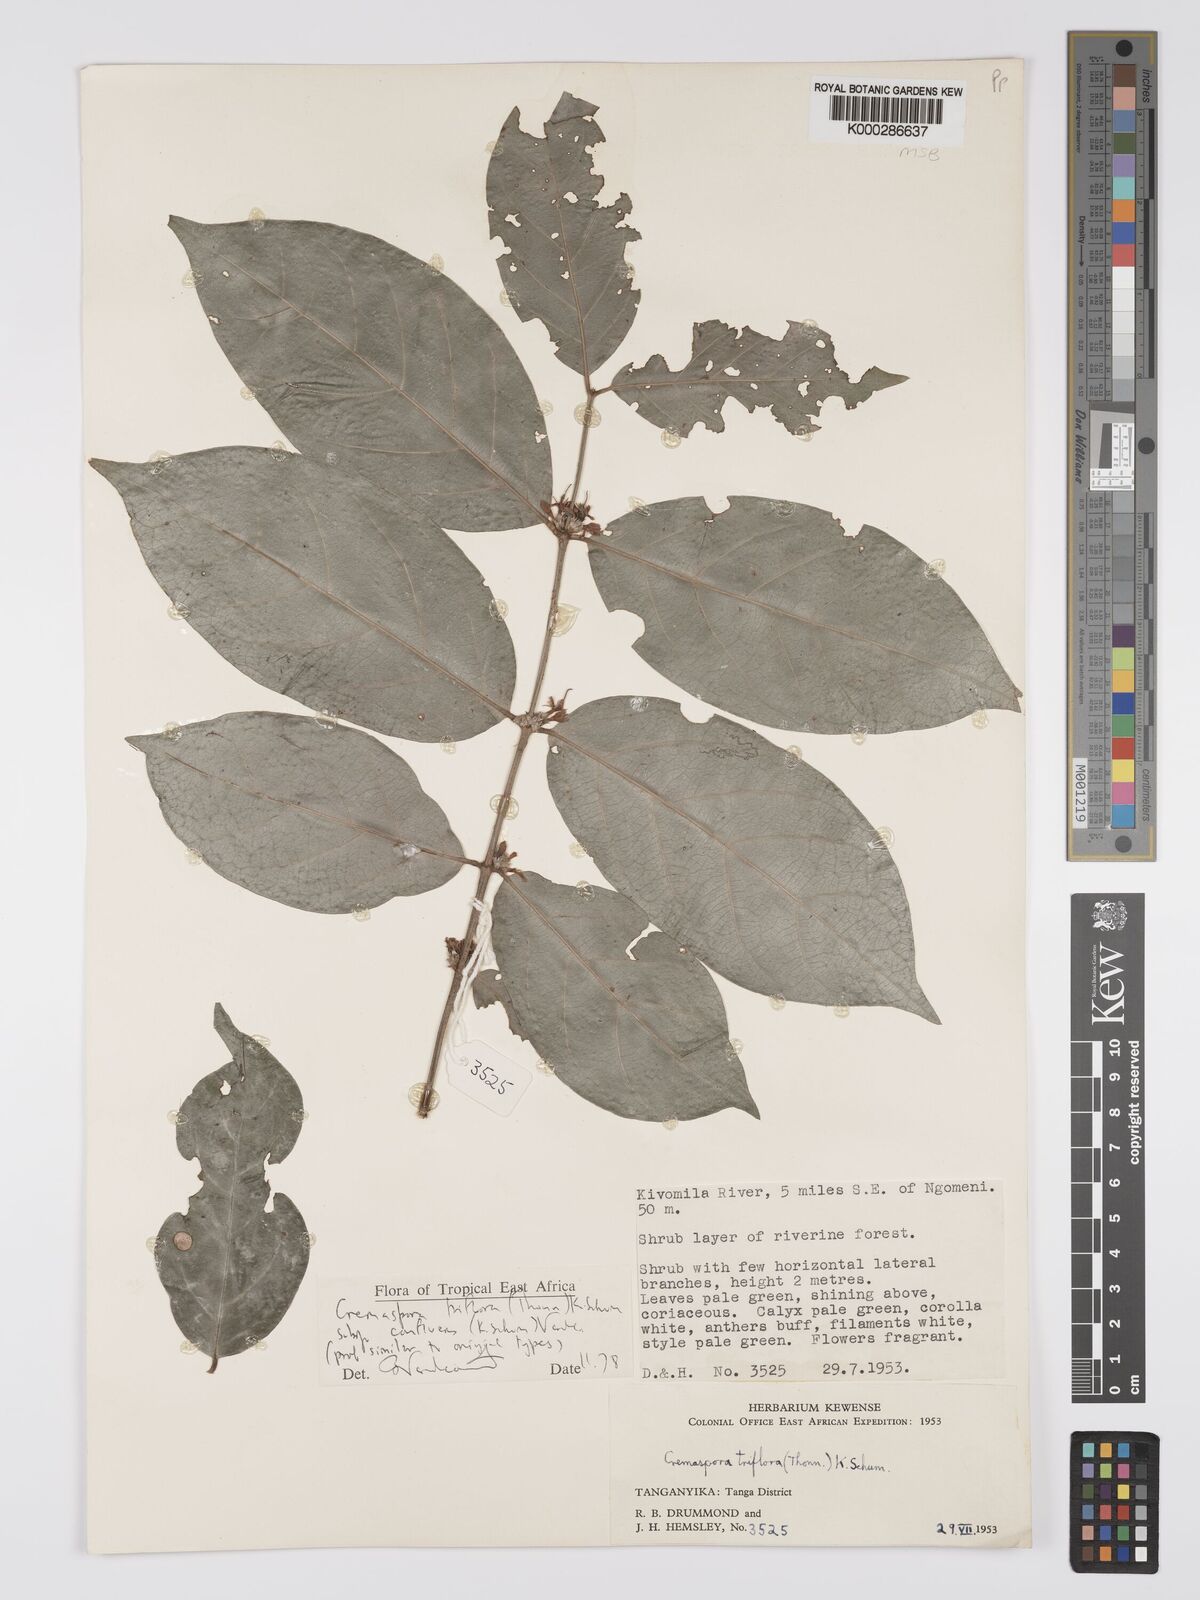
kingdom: Plantae
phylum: Tracheophyta
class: Magnoliopsida
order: Gentianales
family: Rubiaceae
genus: Cremaspora
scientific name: Cremaspora triflora
